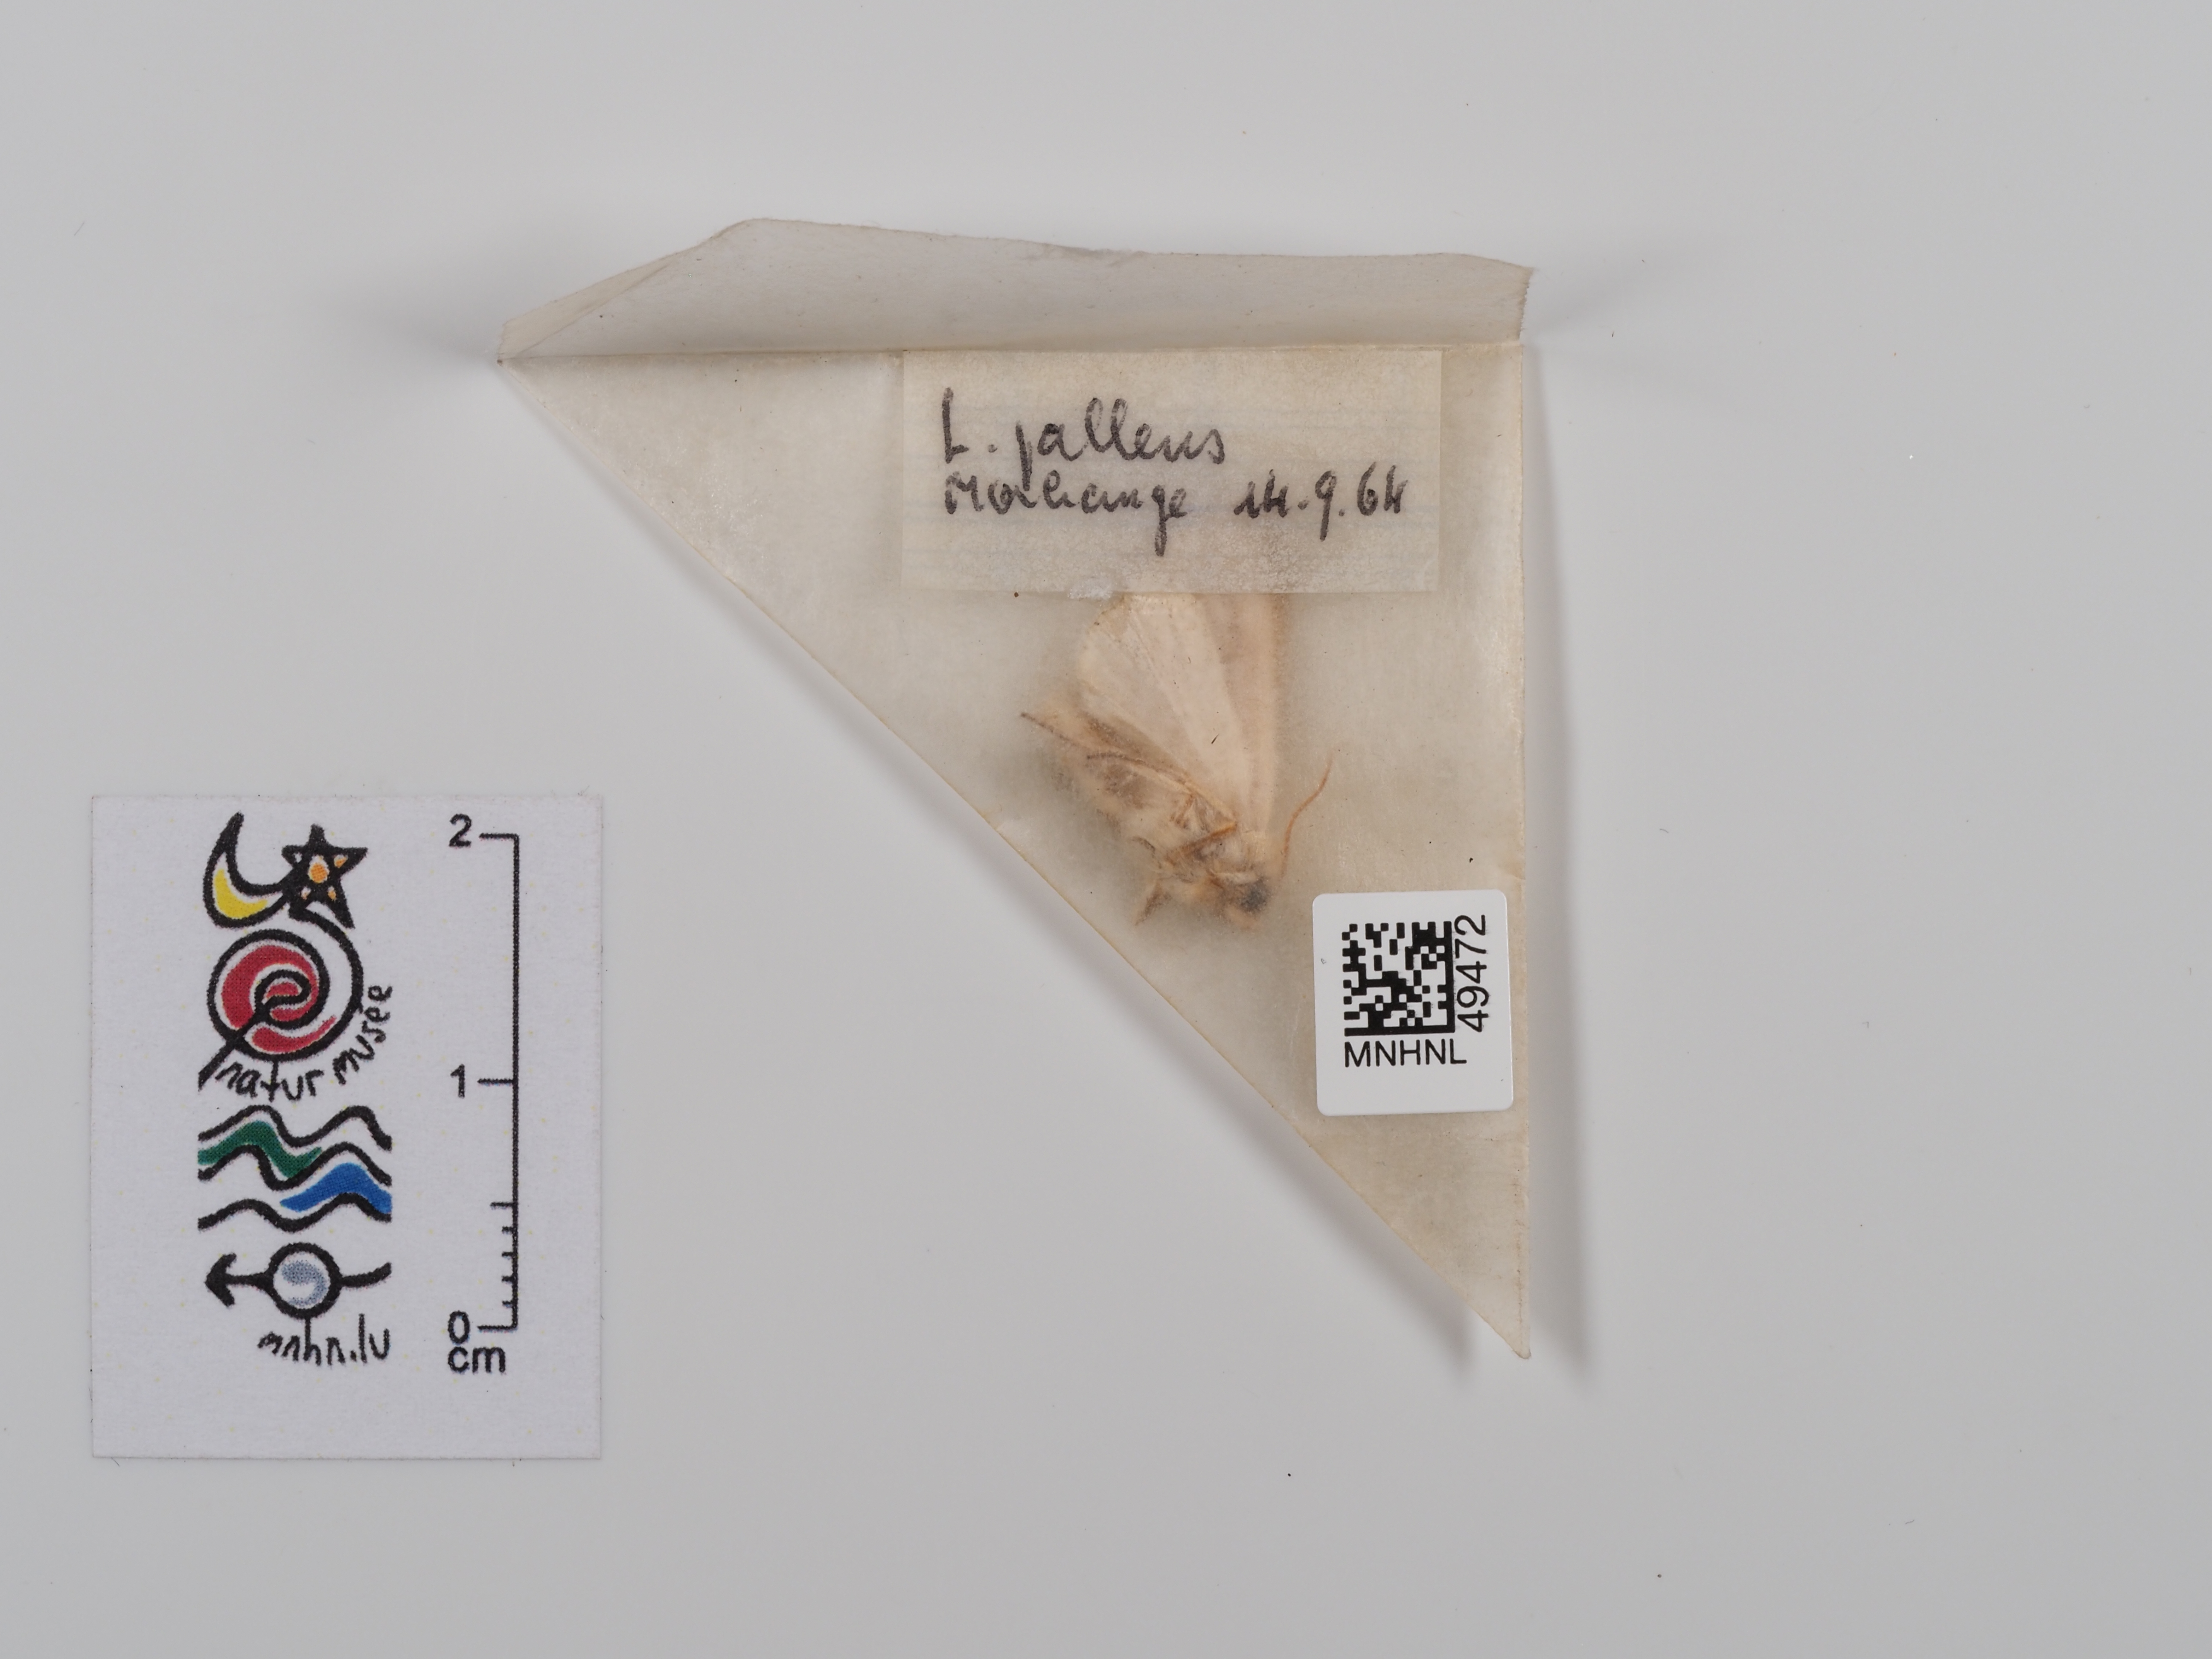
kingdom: Animalia
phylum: Arthropoda
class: Insecta
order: Lepidoptera
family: Noctuidae
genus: Mythimna
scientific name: Mythimna pallens
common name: Common wainscot
